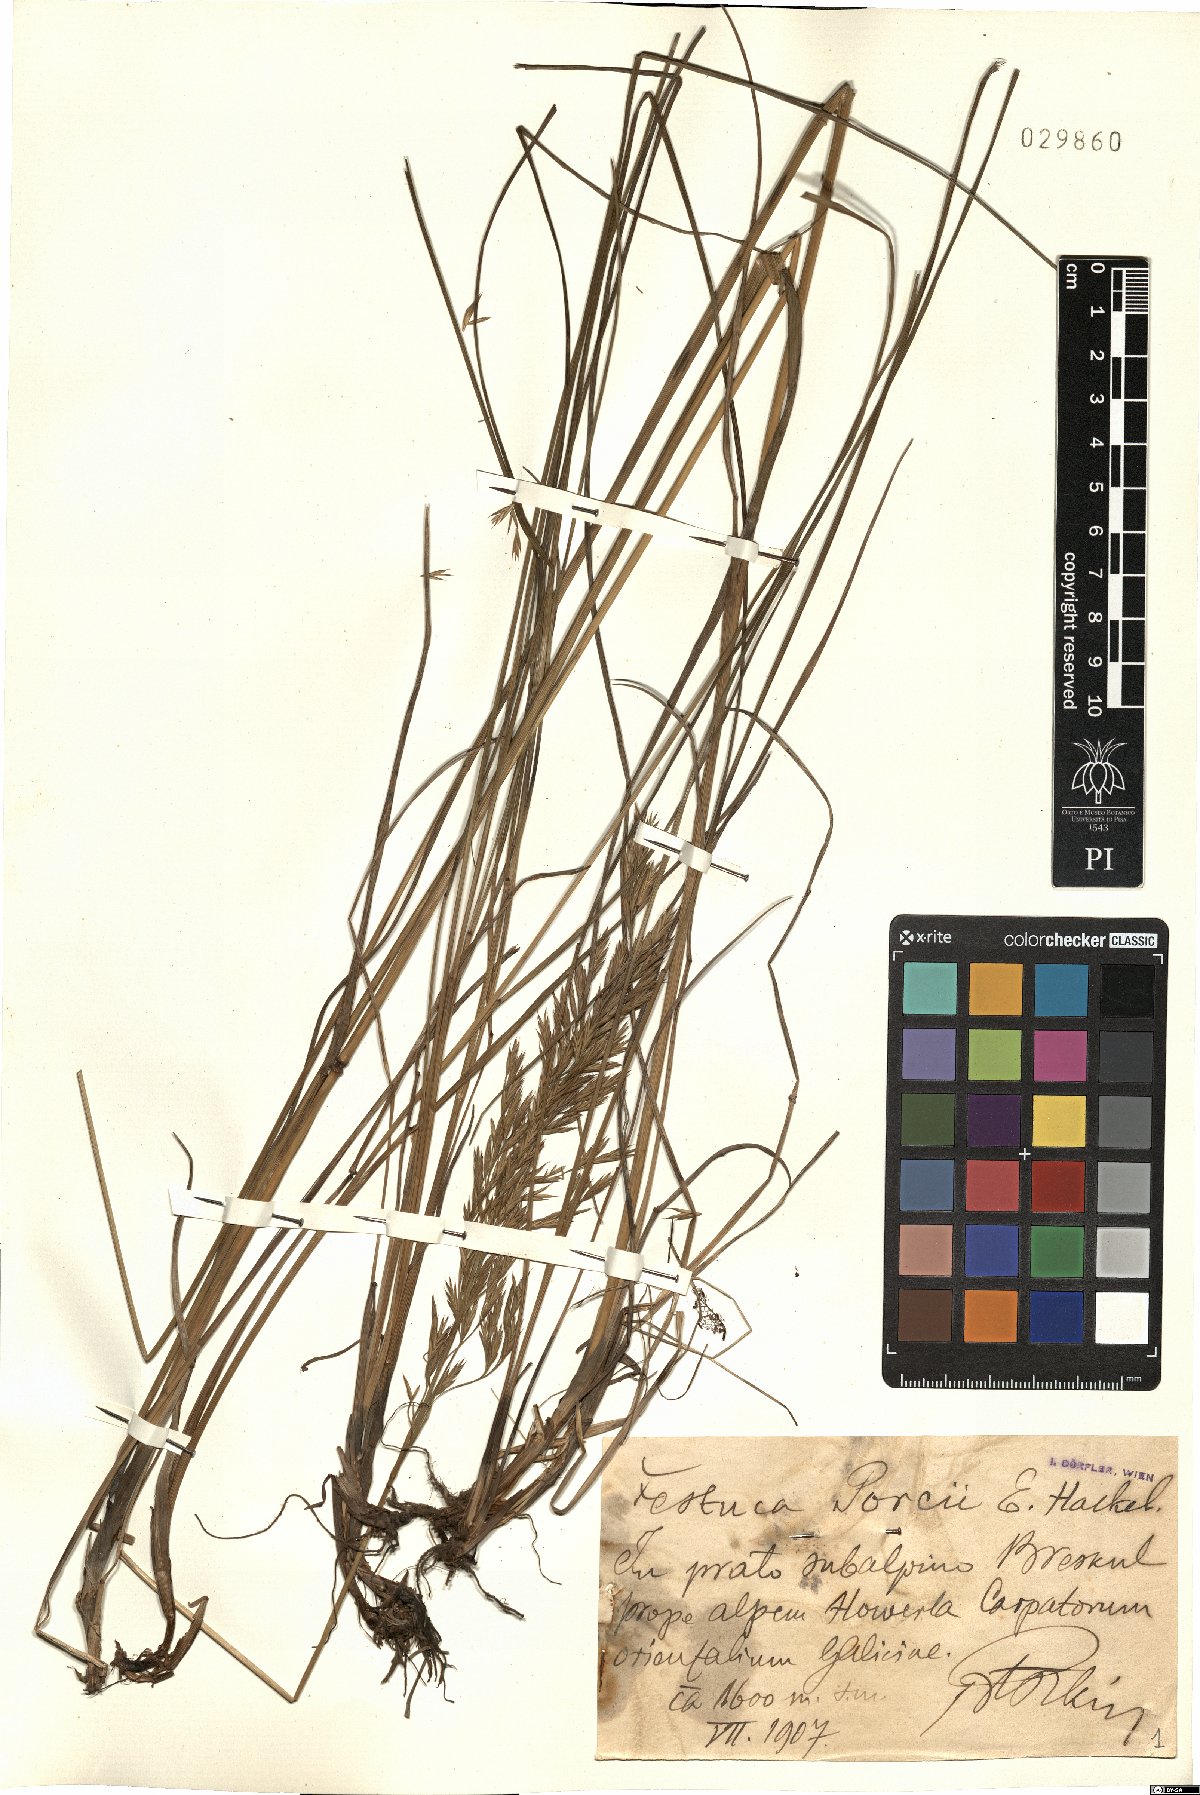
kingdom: Plantae
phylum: Tracheophyta
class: Liliopsida
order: Poales
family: Poaceae
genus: Festuca
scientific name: Festuca porcii
